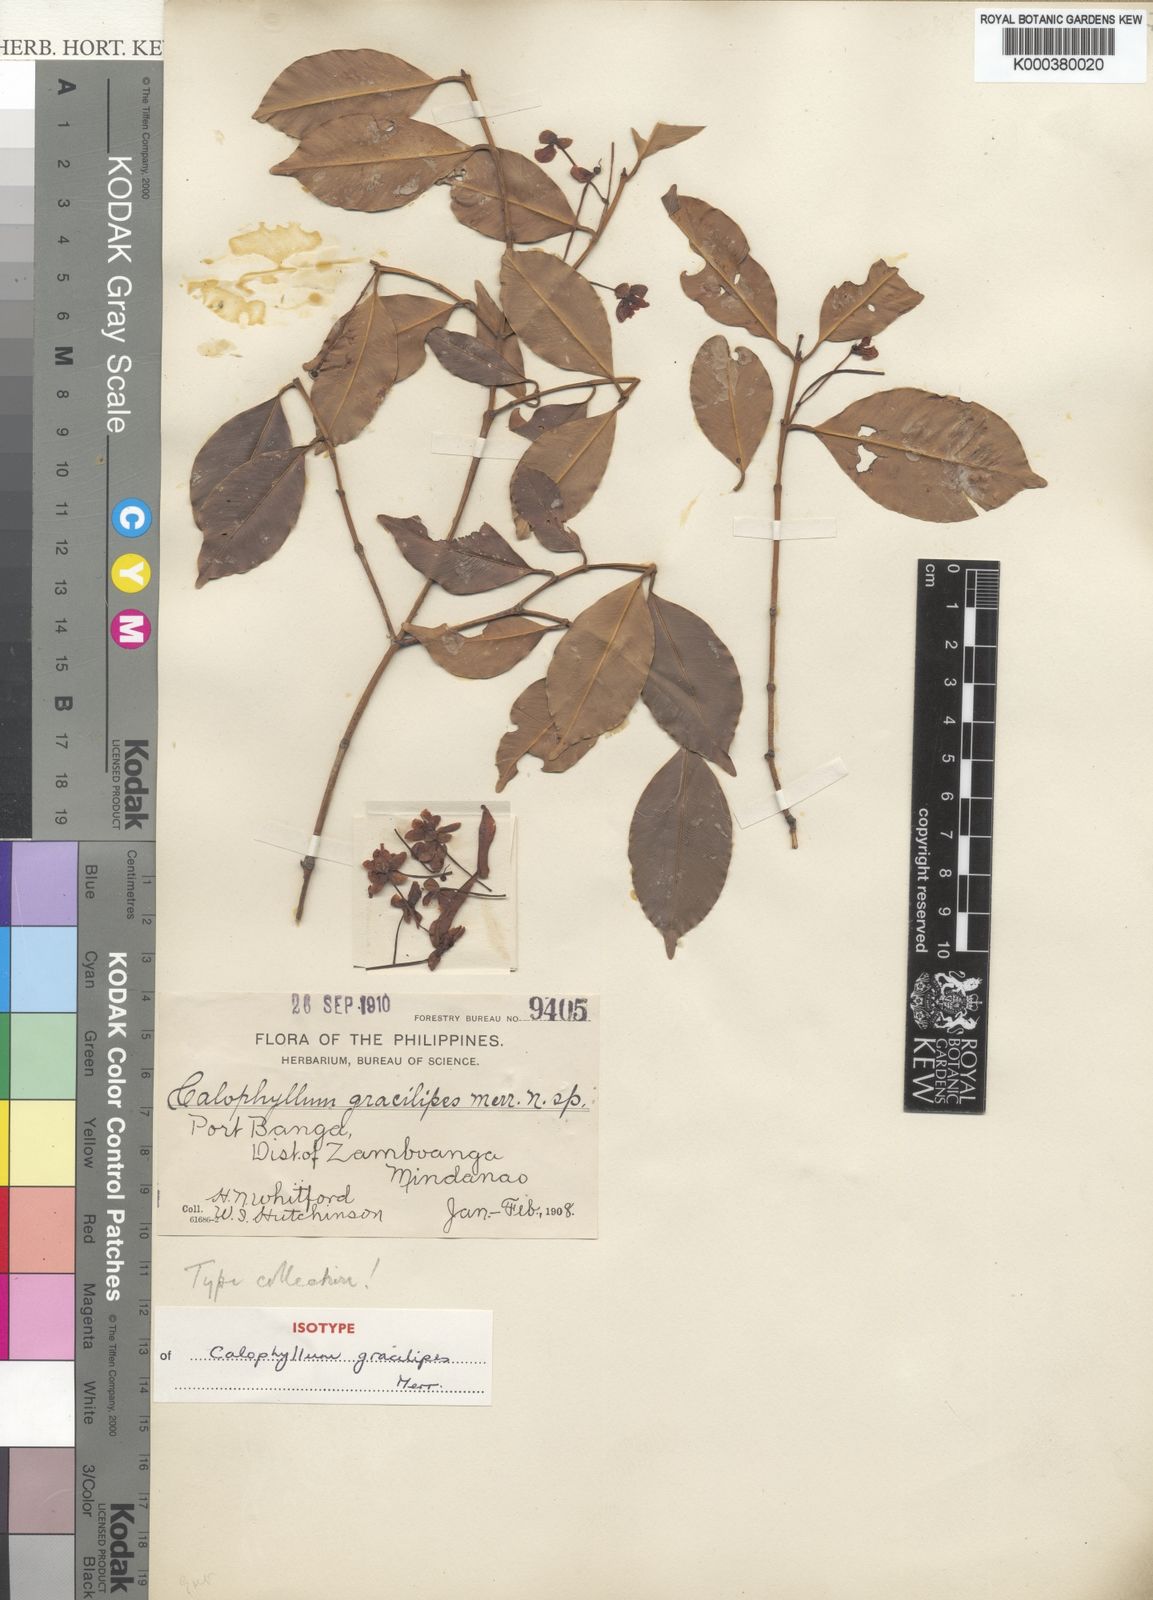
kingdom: Plantae
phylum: Tracheophyta
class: Magnoliopsida
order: Malpighiales
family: Calophyllaceae
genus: Calophyllum
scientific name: Calophyllum gracilipes
